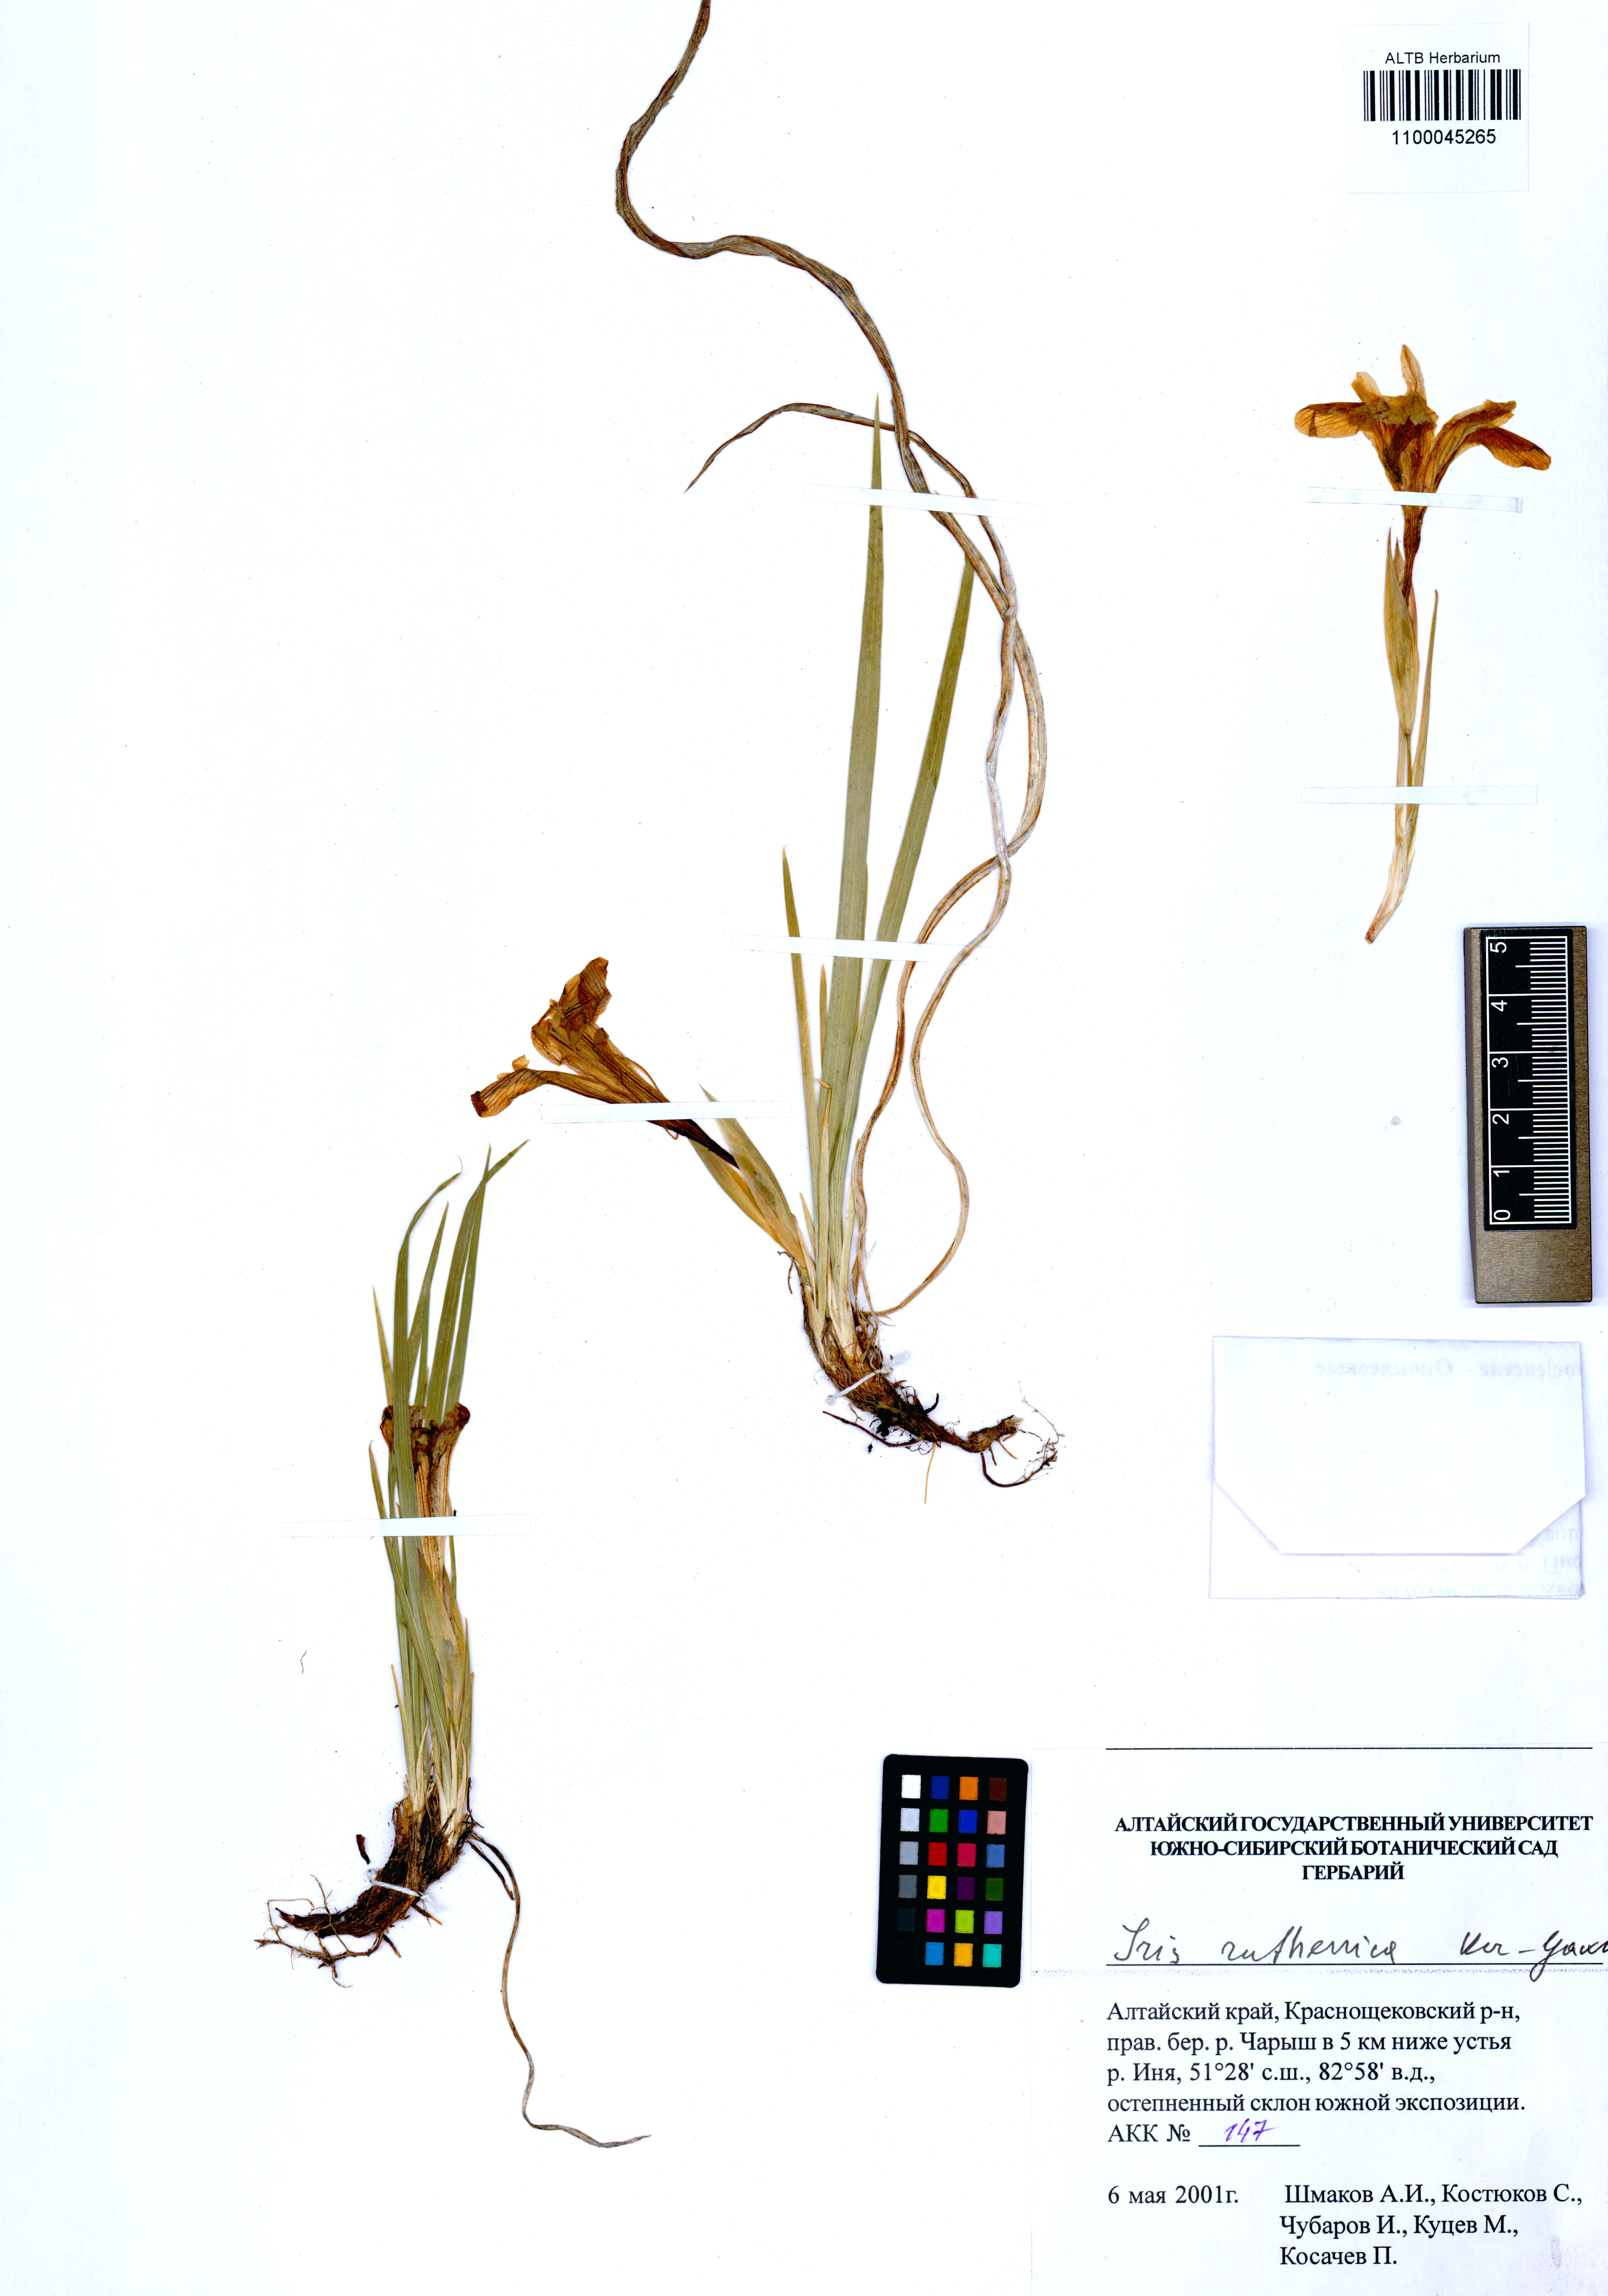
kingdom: Plantae
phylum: Tracheophyta
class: Liliopsida
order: Asparagales
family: Iridaceae
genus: Iris
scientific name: Iris ruthenica
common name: Purple-bract iris
